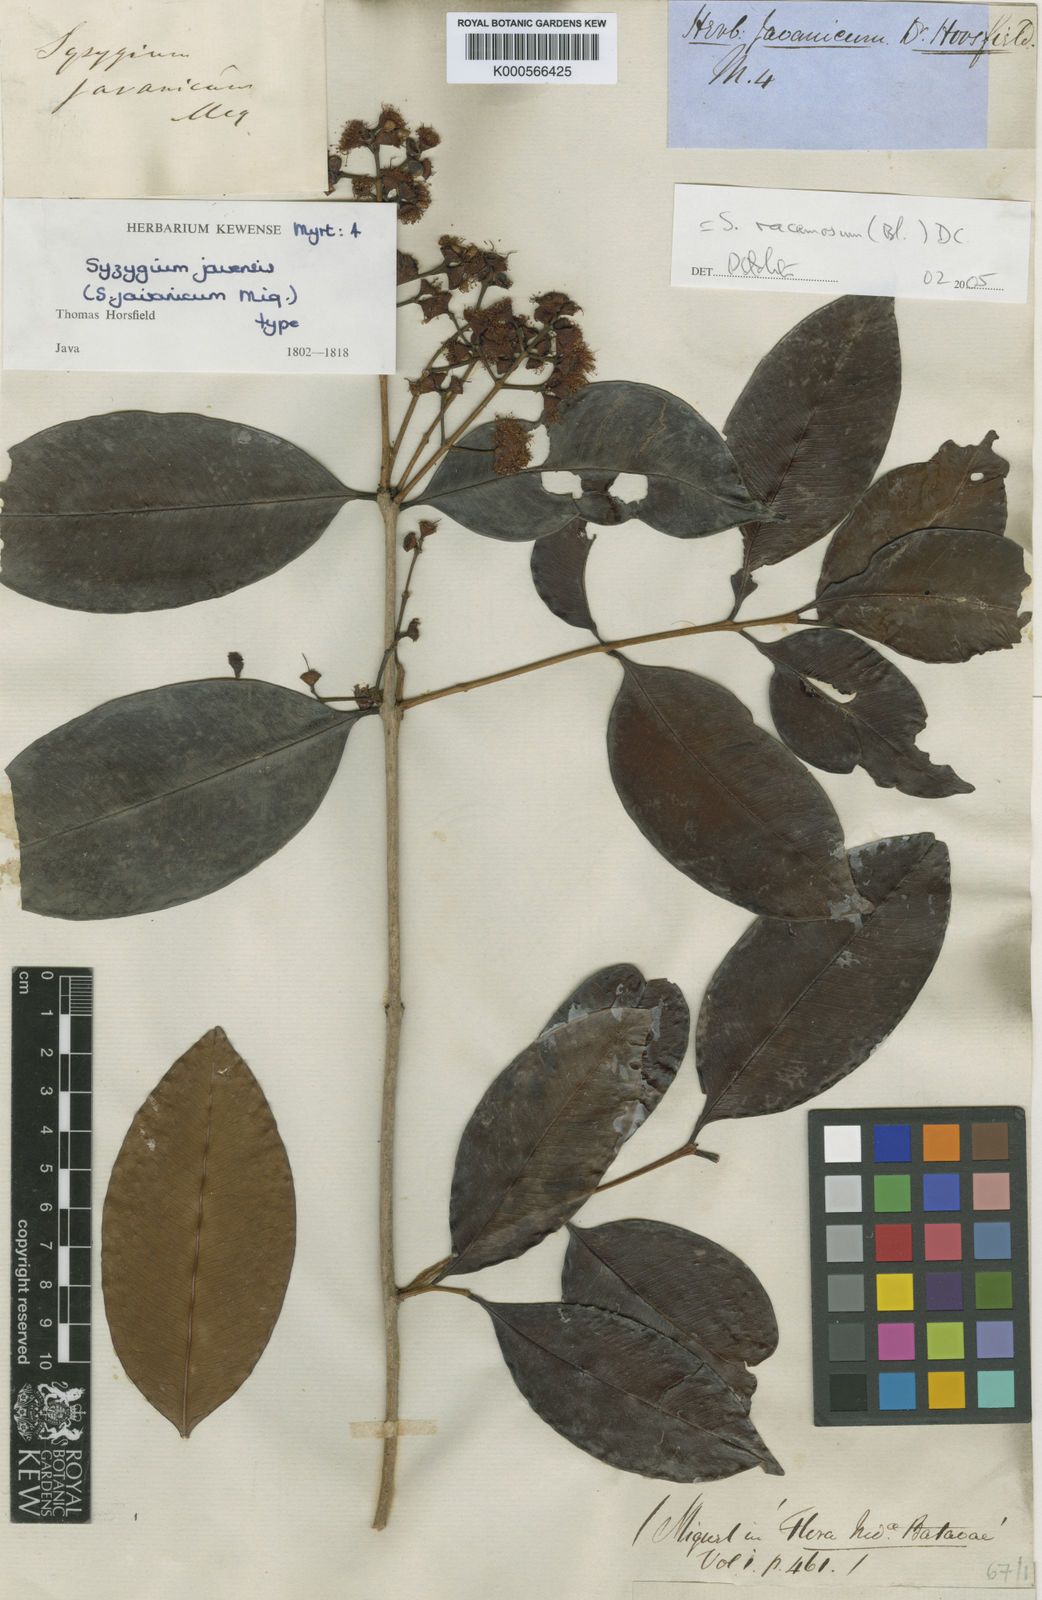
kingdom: Plantae
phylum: Tracheophyta
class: Magnoliopsida
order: Myrtales
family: Myrtaceae
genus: Syzygium
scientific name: Syzygium racemosum
